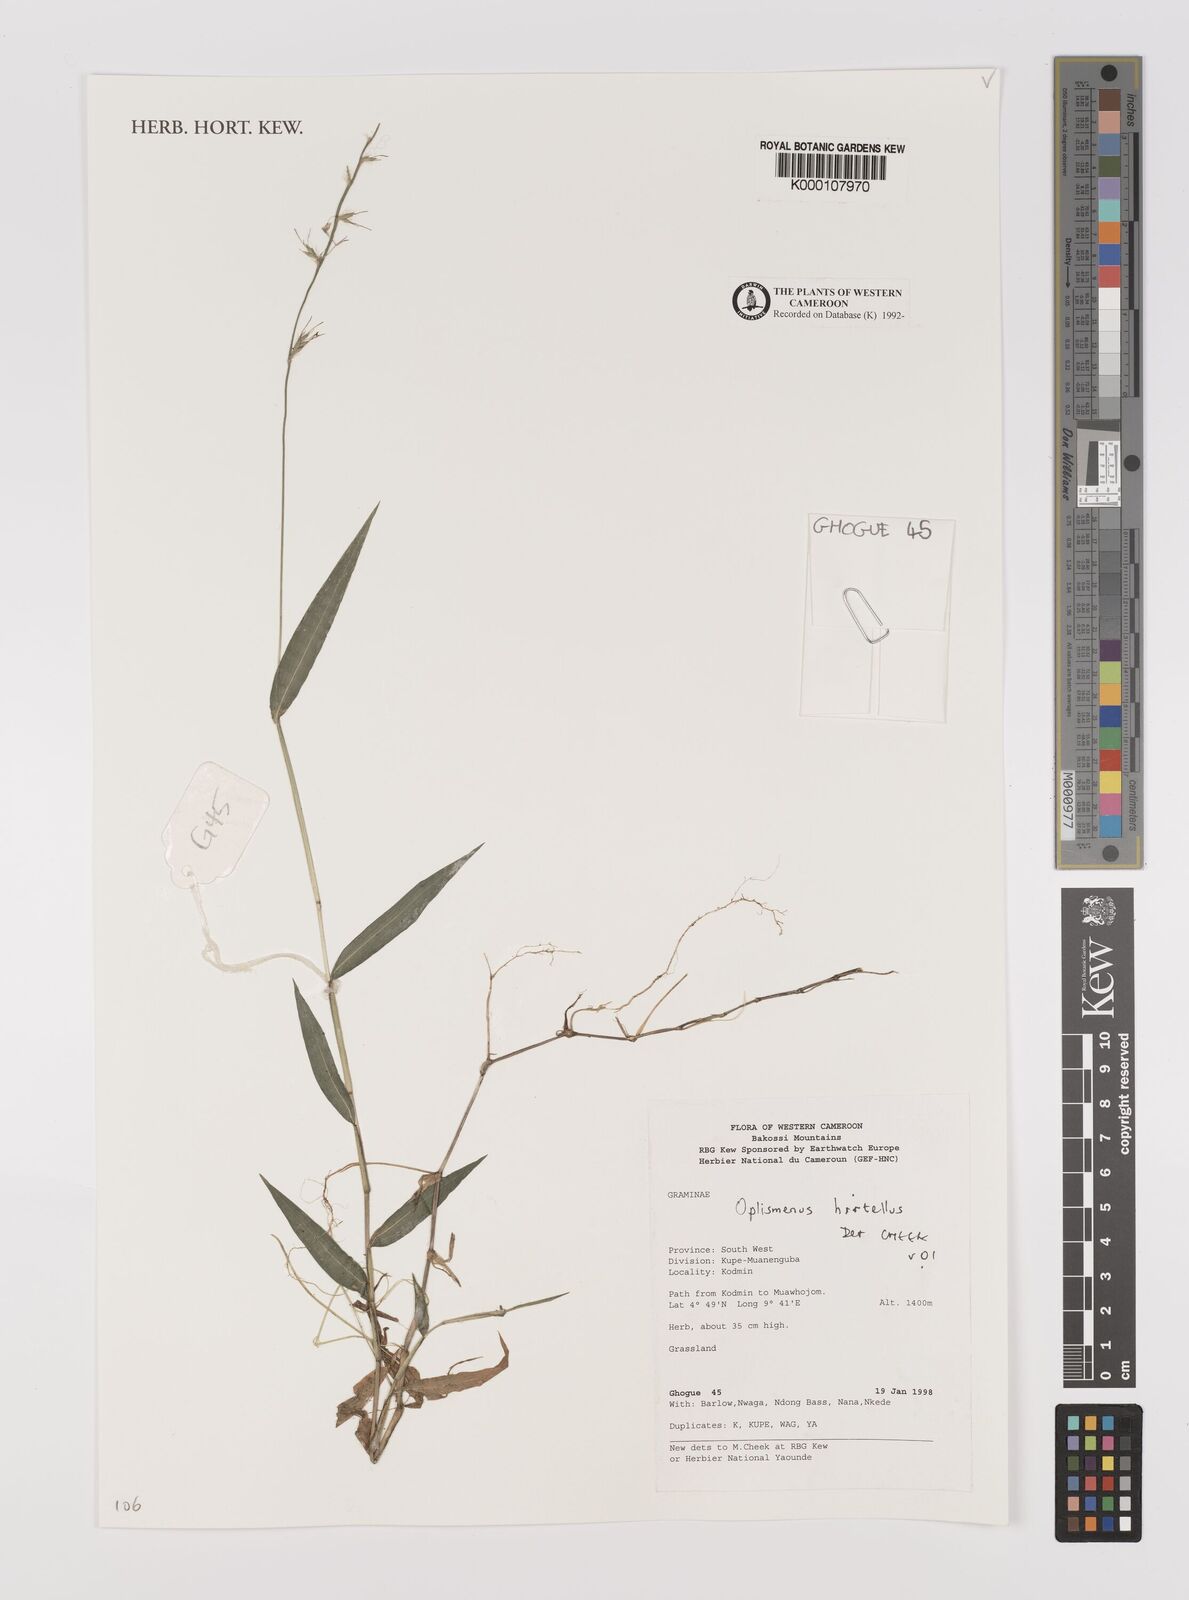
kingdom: Plantae
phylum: Tracheophyta
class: Liliopsida
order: Poales
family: Poaceae
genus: Oplismenus
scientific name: Oplismenus hirtellus
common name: Basketgrass
